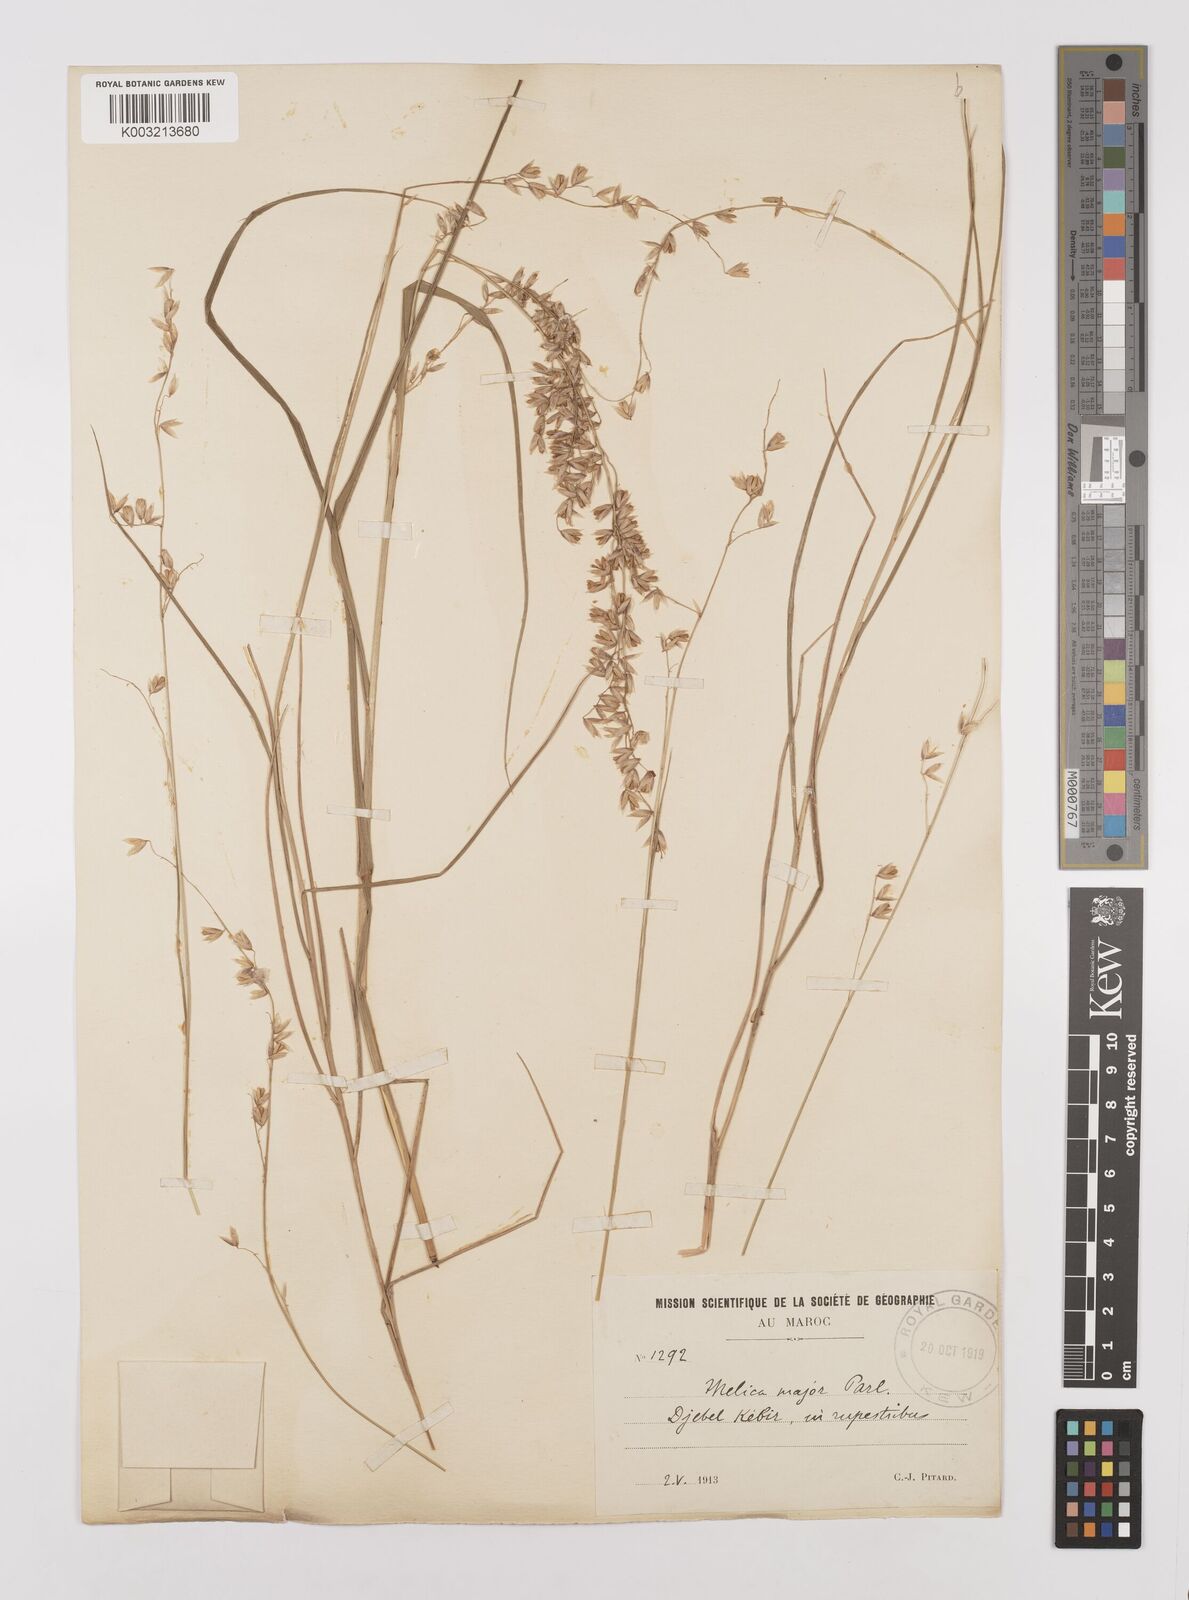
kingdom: Plantae
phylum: Tracheophyta
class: Liliopsida
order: Poales
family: Poaceae
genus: Melica
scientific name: Melica minuta
